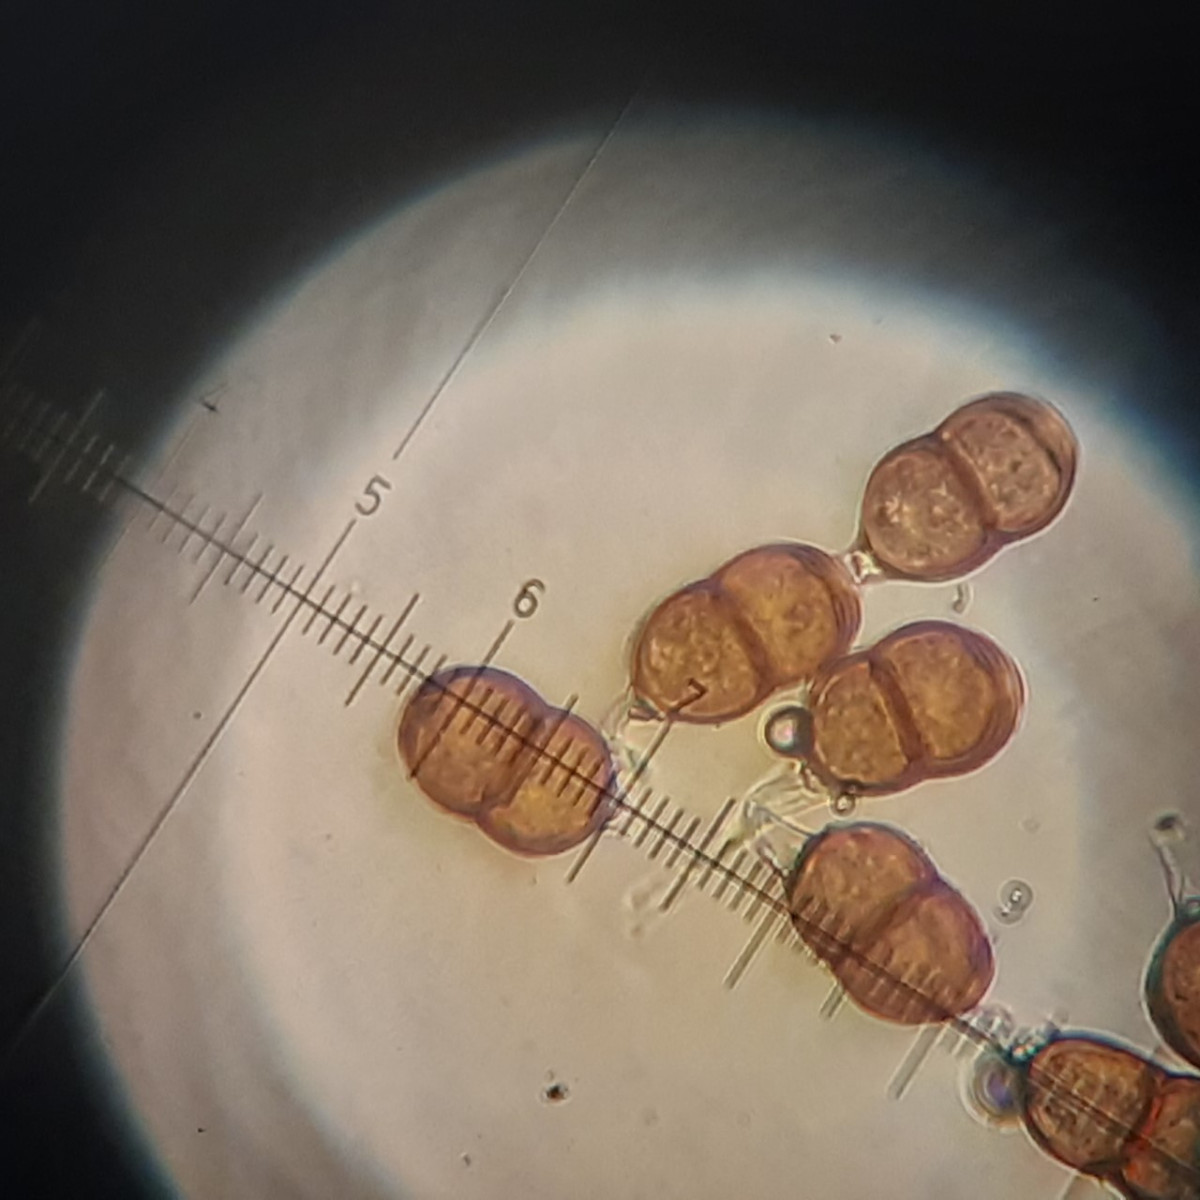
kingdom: Fungi
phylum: Basidiomycota
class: Pucciniomycetes
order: Pucciniales
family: Pucciniaceae
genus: Puccinia
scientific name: Puccinia epilobii
